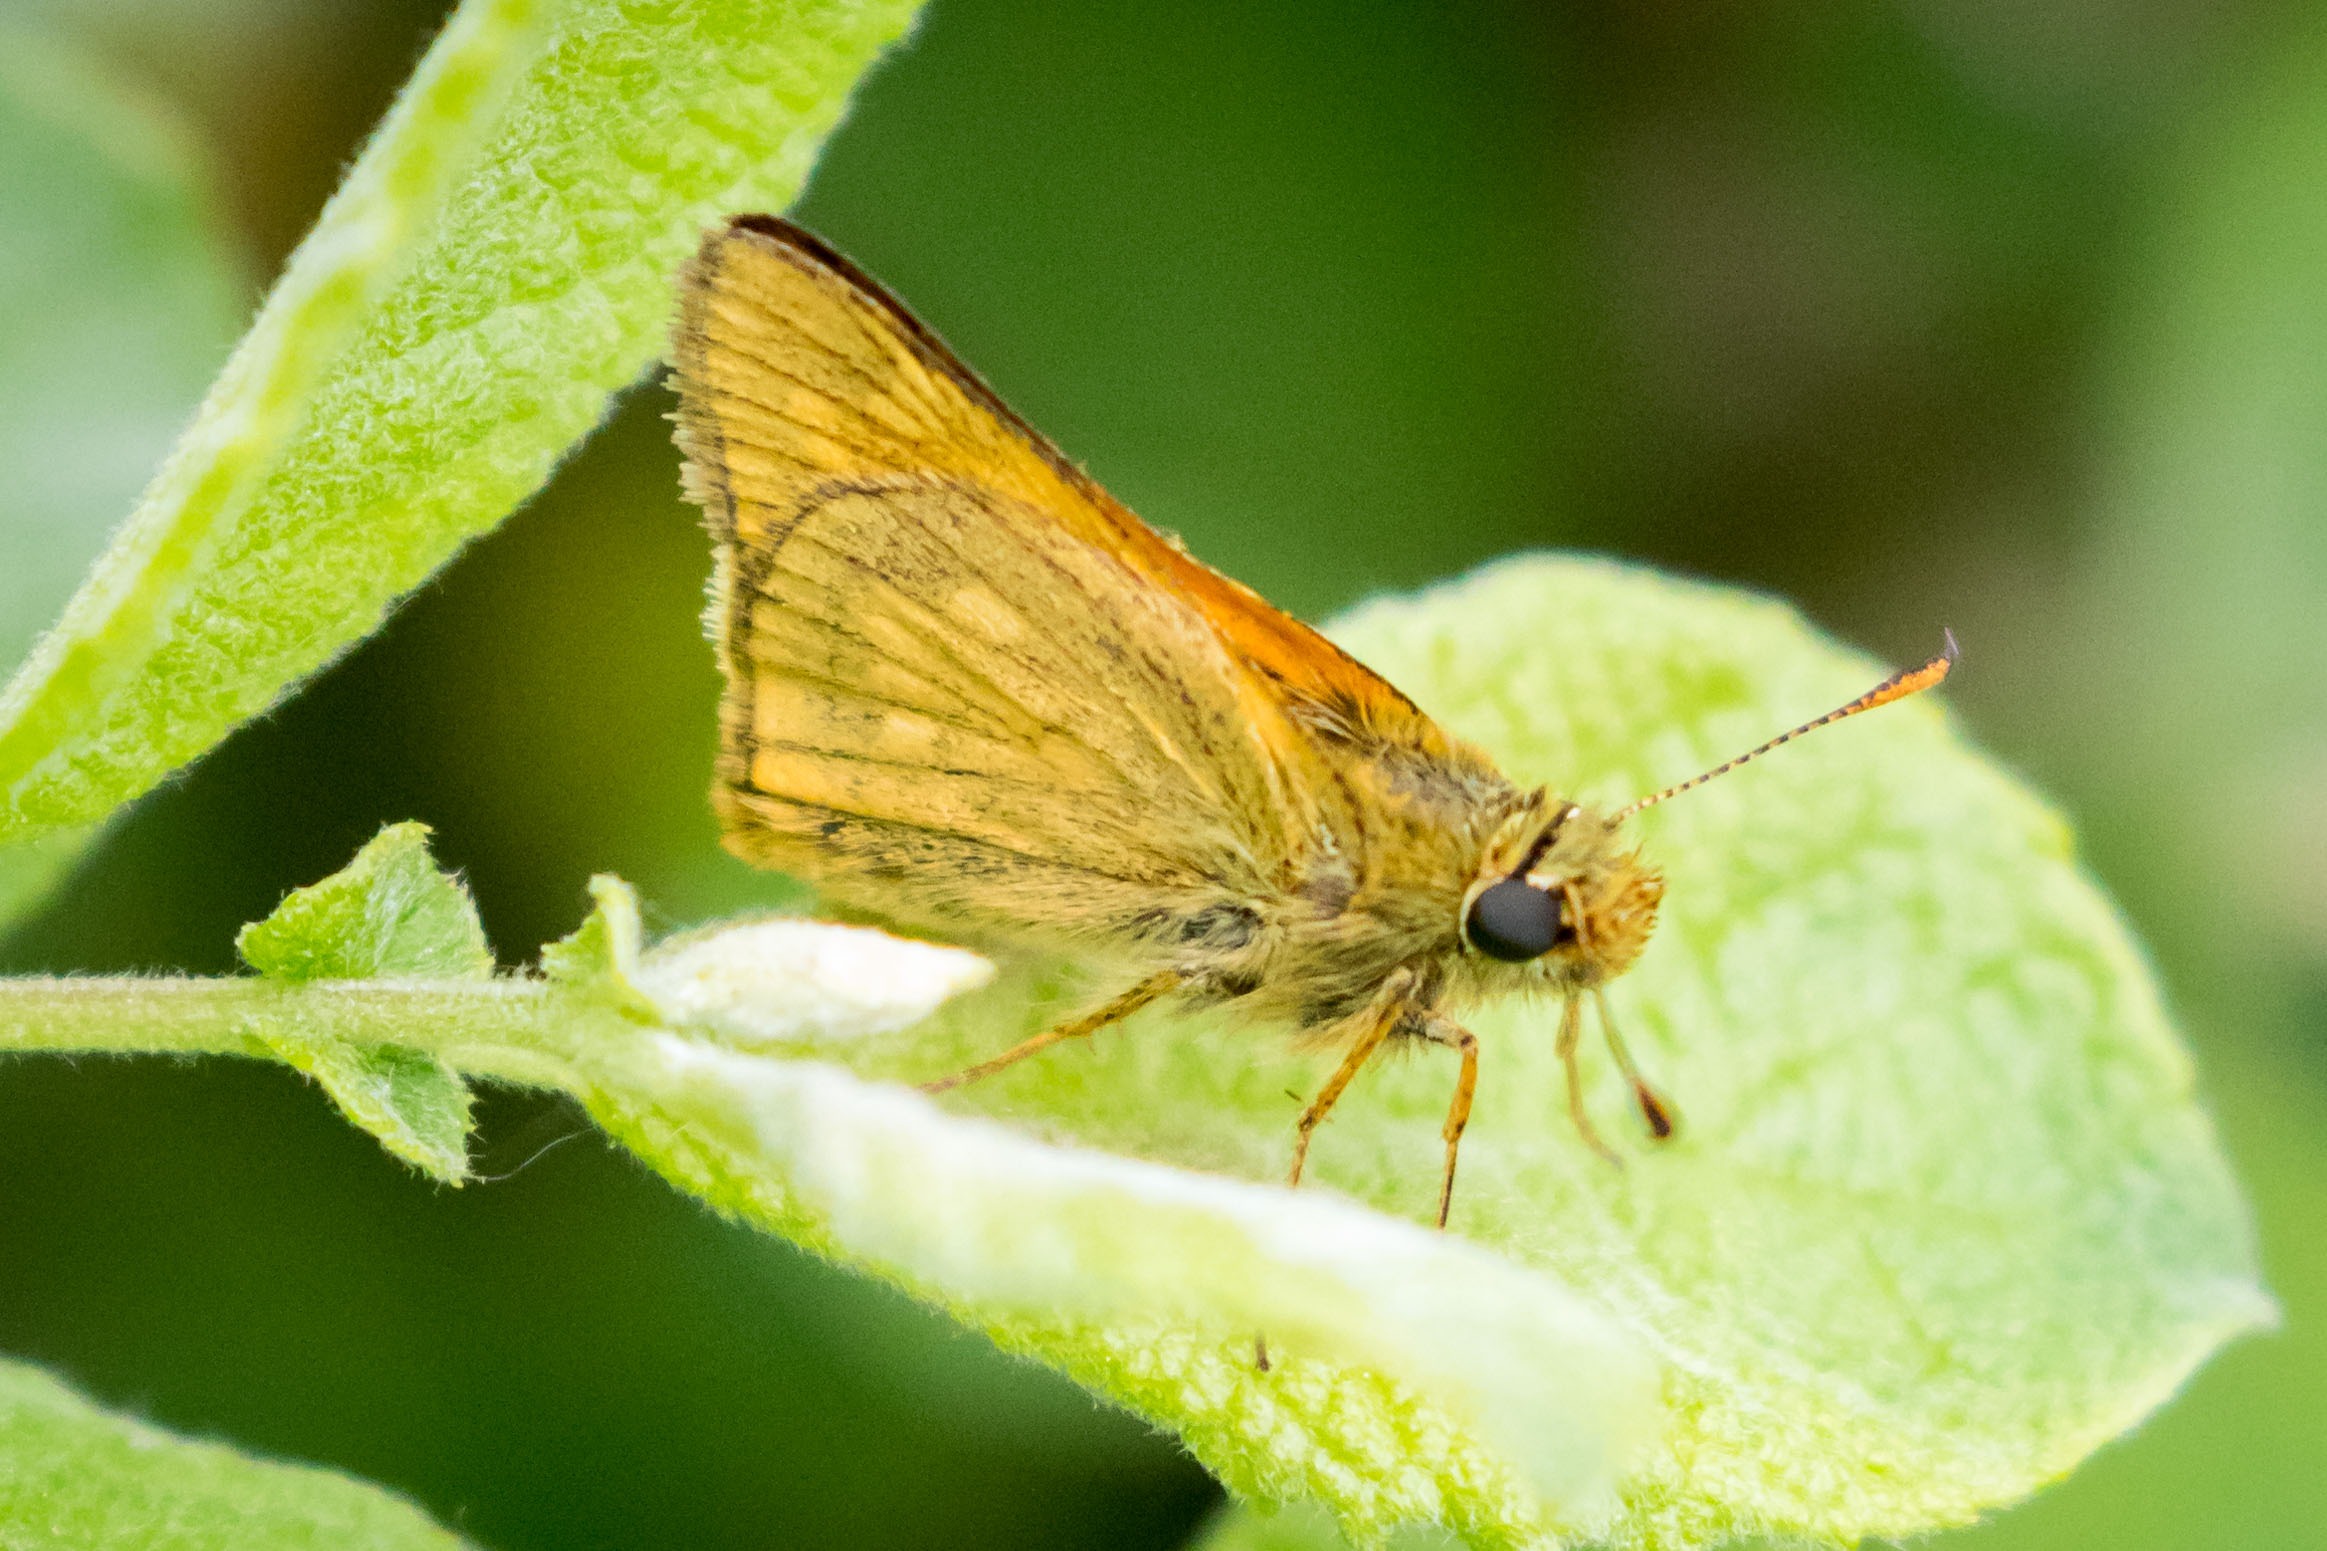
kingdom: Animalia
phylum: Arthropoda
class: Insecta
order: Lepidoptera
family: Hesperiidae
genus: Ochlodes
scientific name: Ochlodes venata
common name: Stor bredpande
